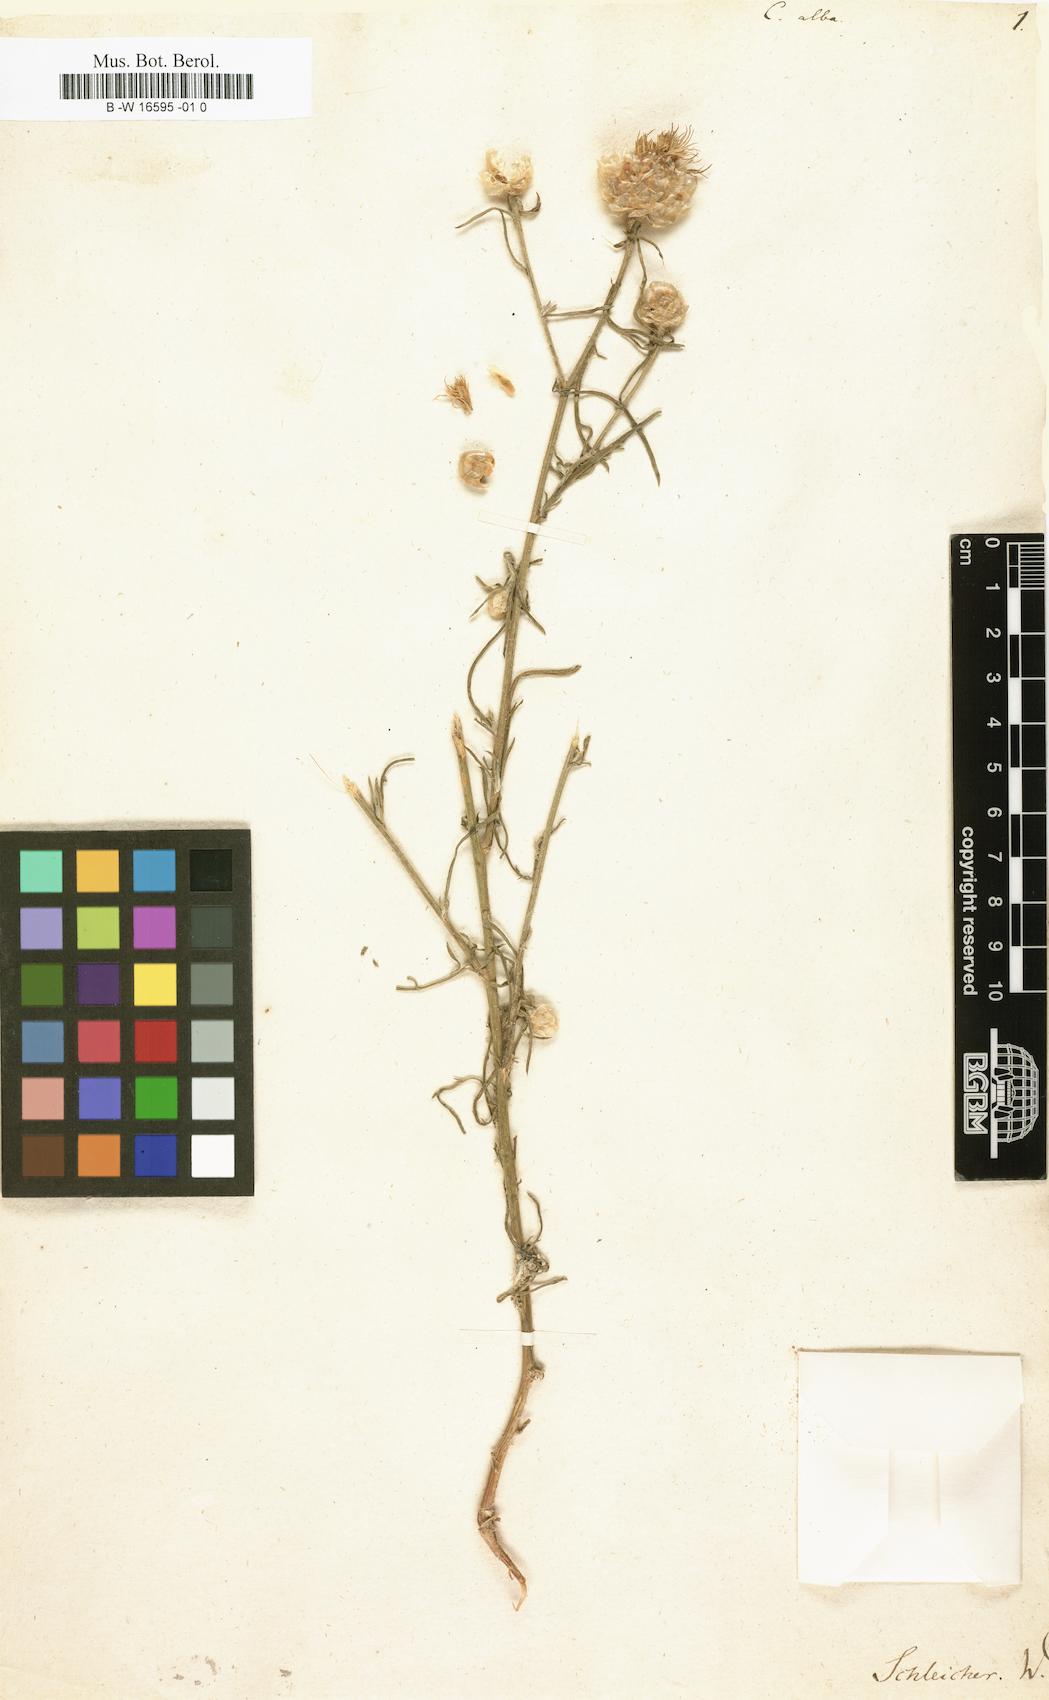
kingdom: Plantae
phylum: Tracheophyta
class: Magnoliopsida
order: Asterales
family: Asteraceae
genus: Centaurea
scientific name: Centaurea alba
